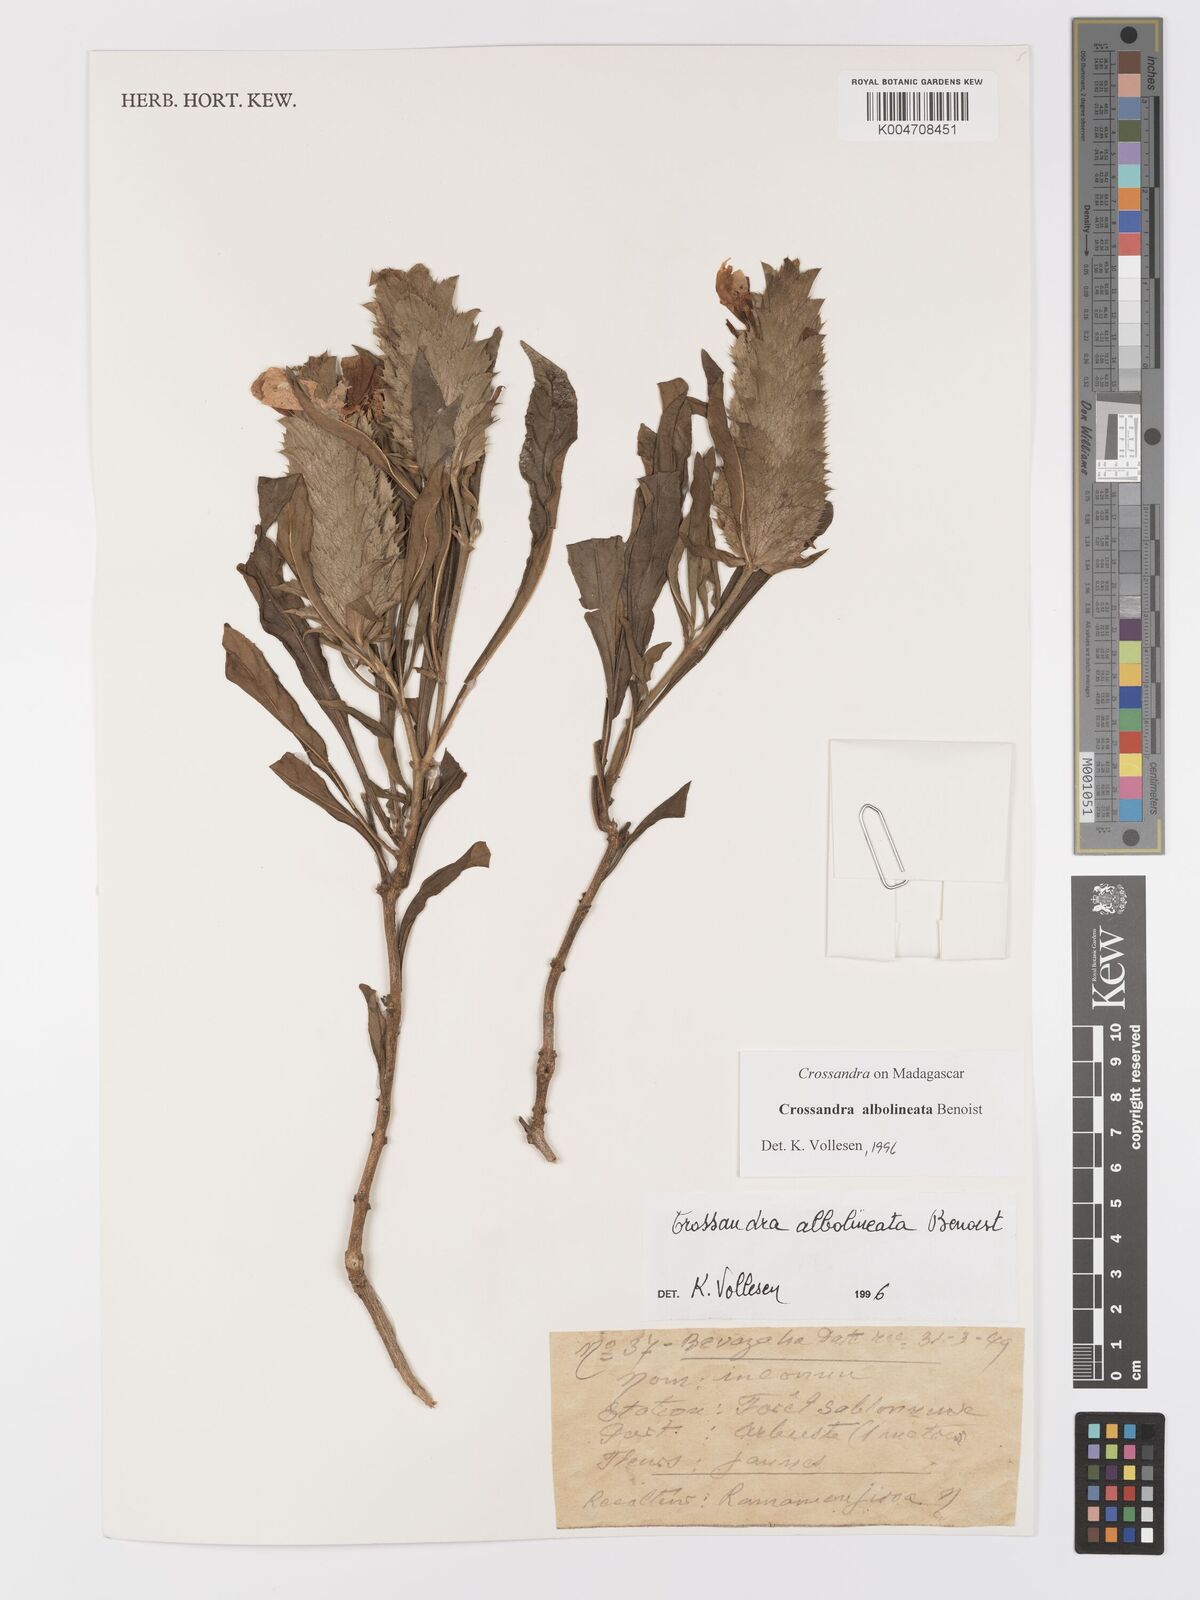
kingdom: Plantae
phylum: Tracheophyta
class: Magnoliopsida
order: Lamiales
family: Acanthaceae
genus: Crossandra
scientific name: Crossandra albolineata
